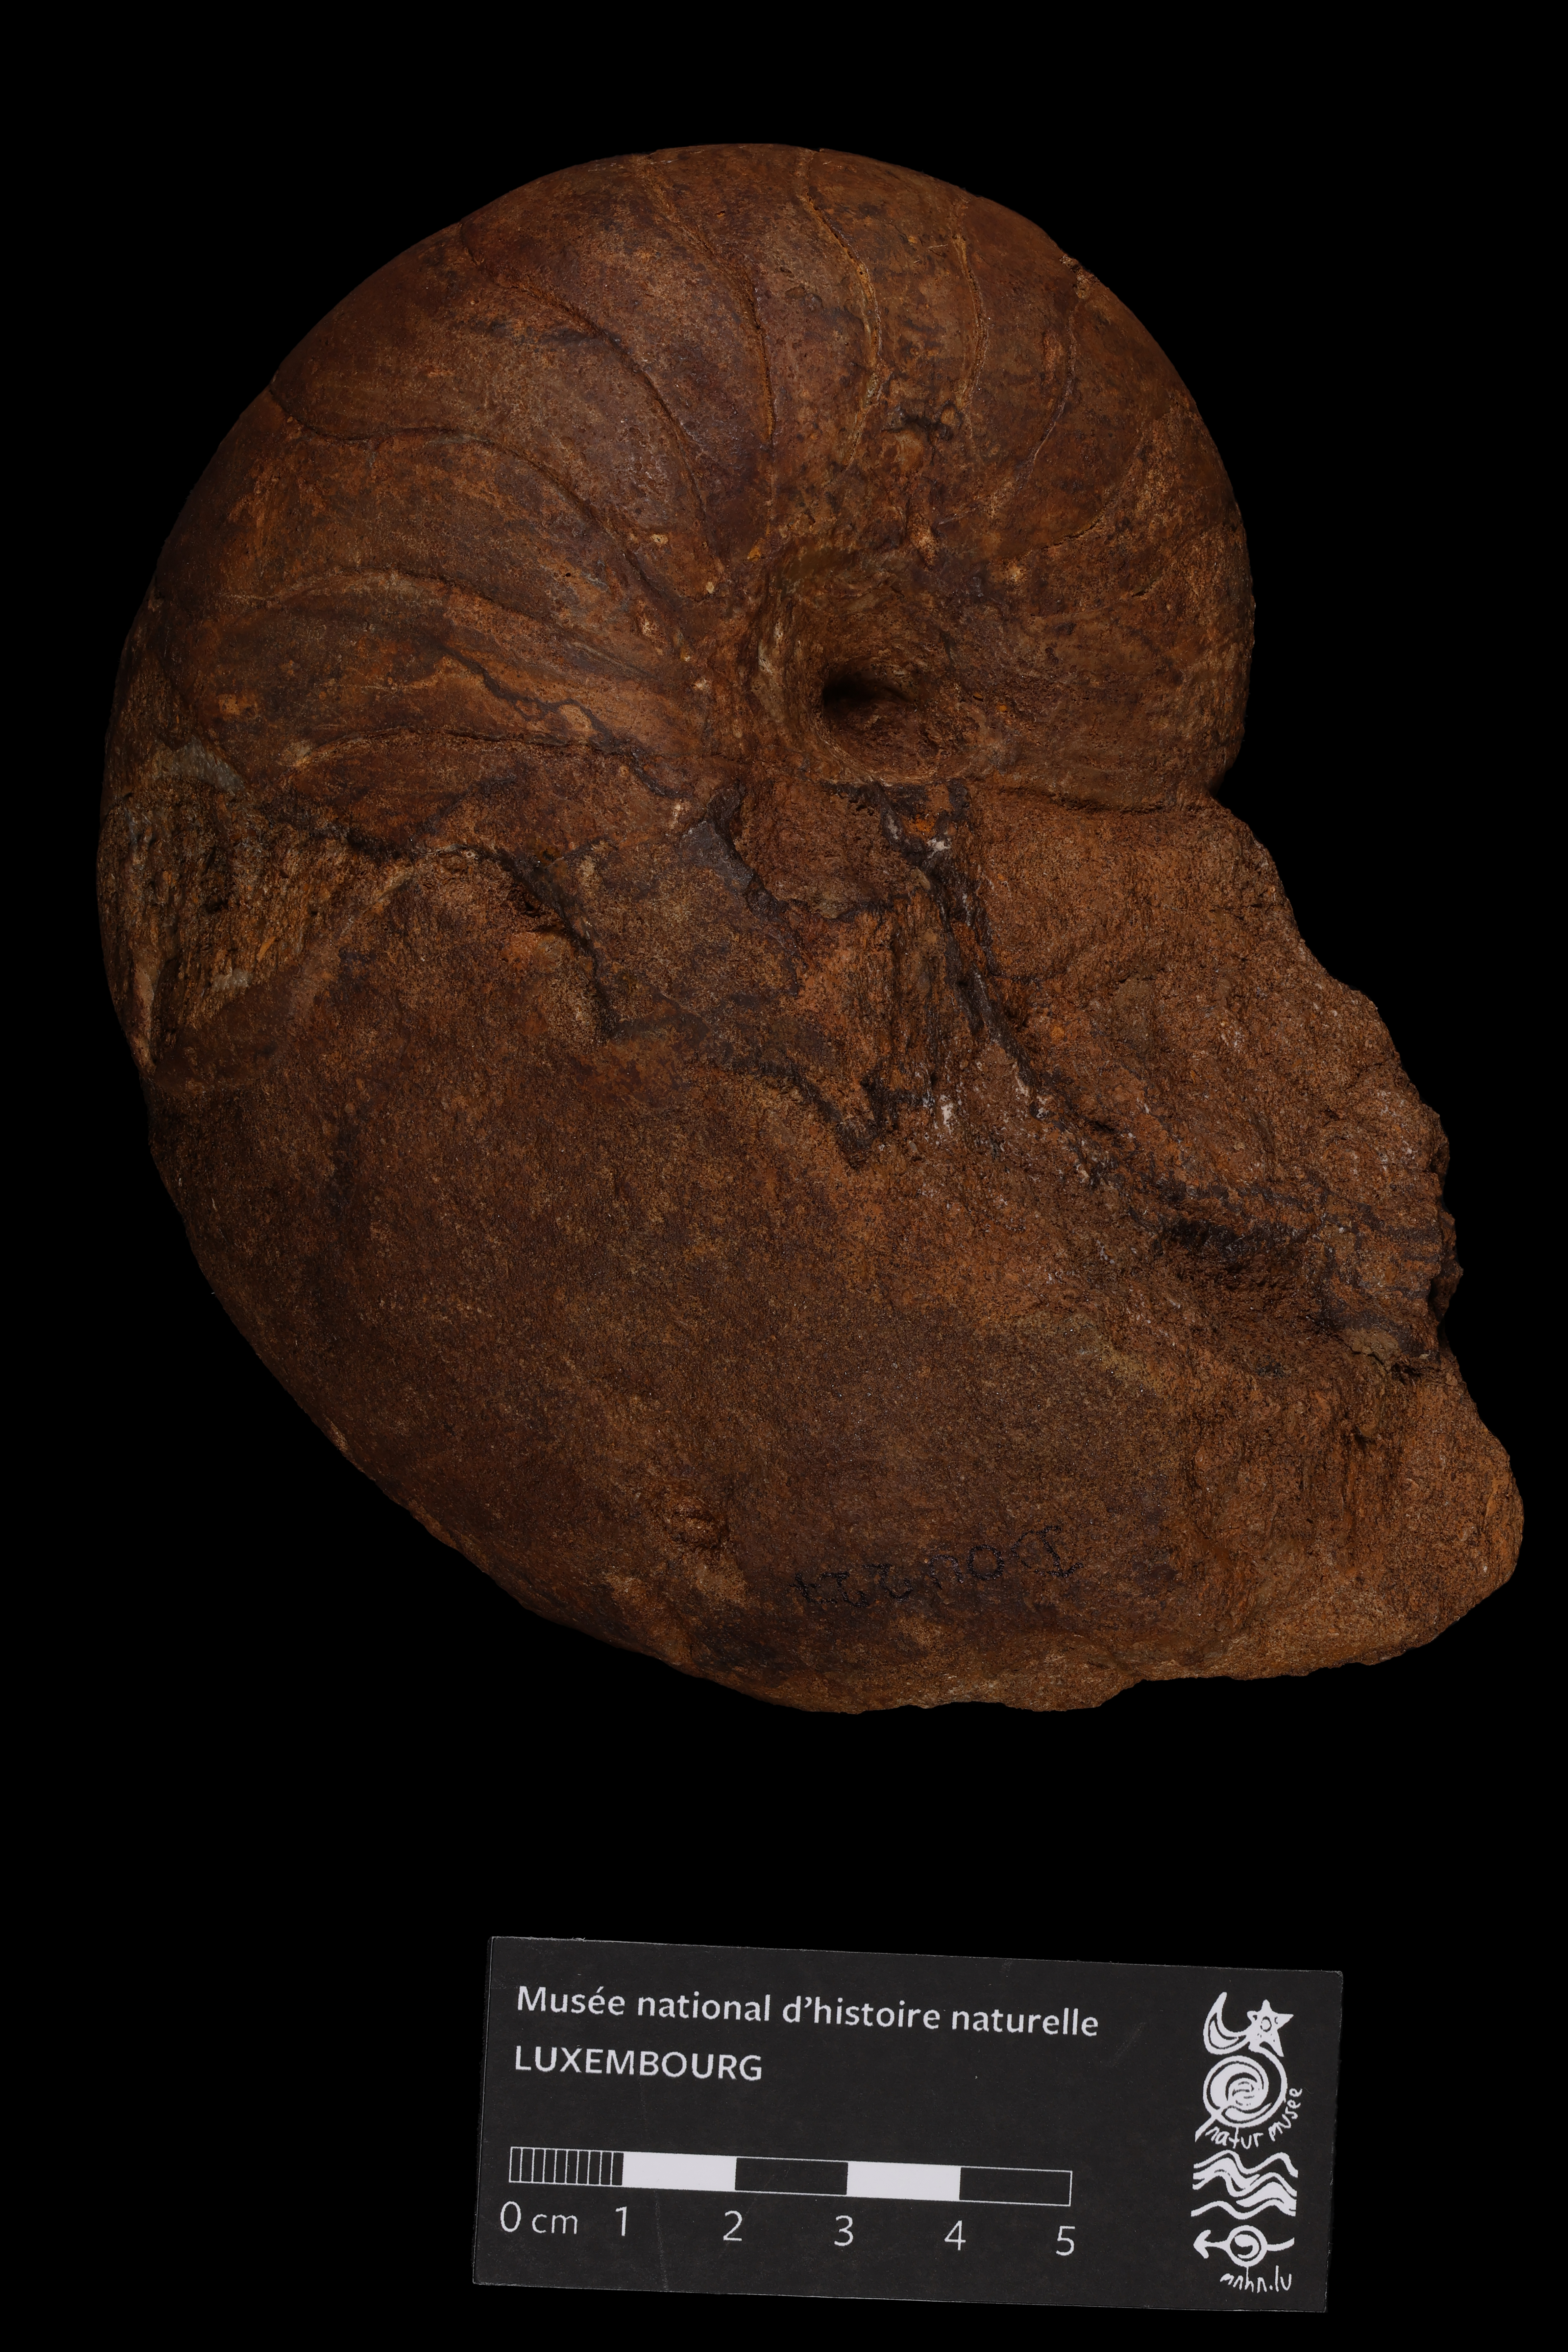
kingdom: Animalia
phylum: Mollusca
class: Cephalopoda
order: Nautilida
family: Nautilidae
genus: Cenoceras
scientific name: Cenoceras
